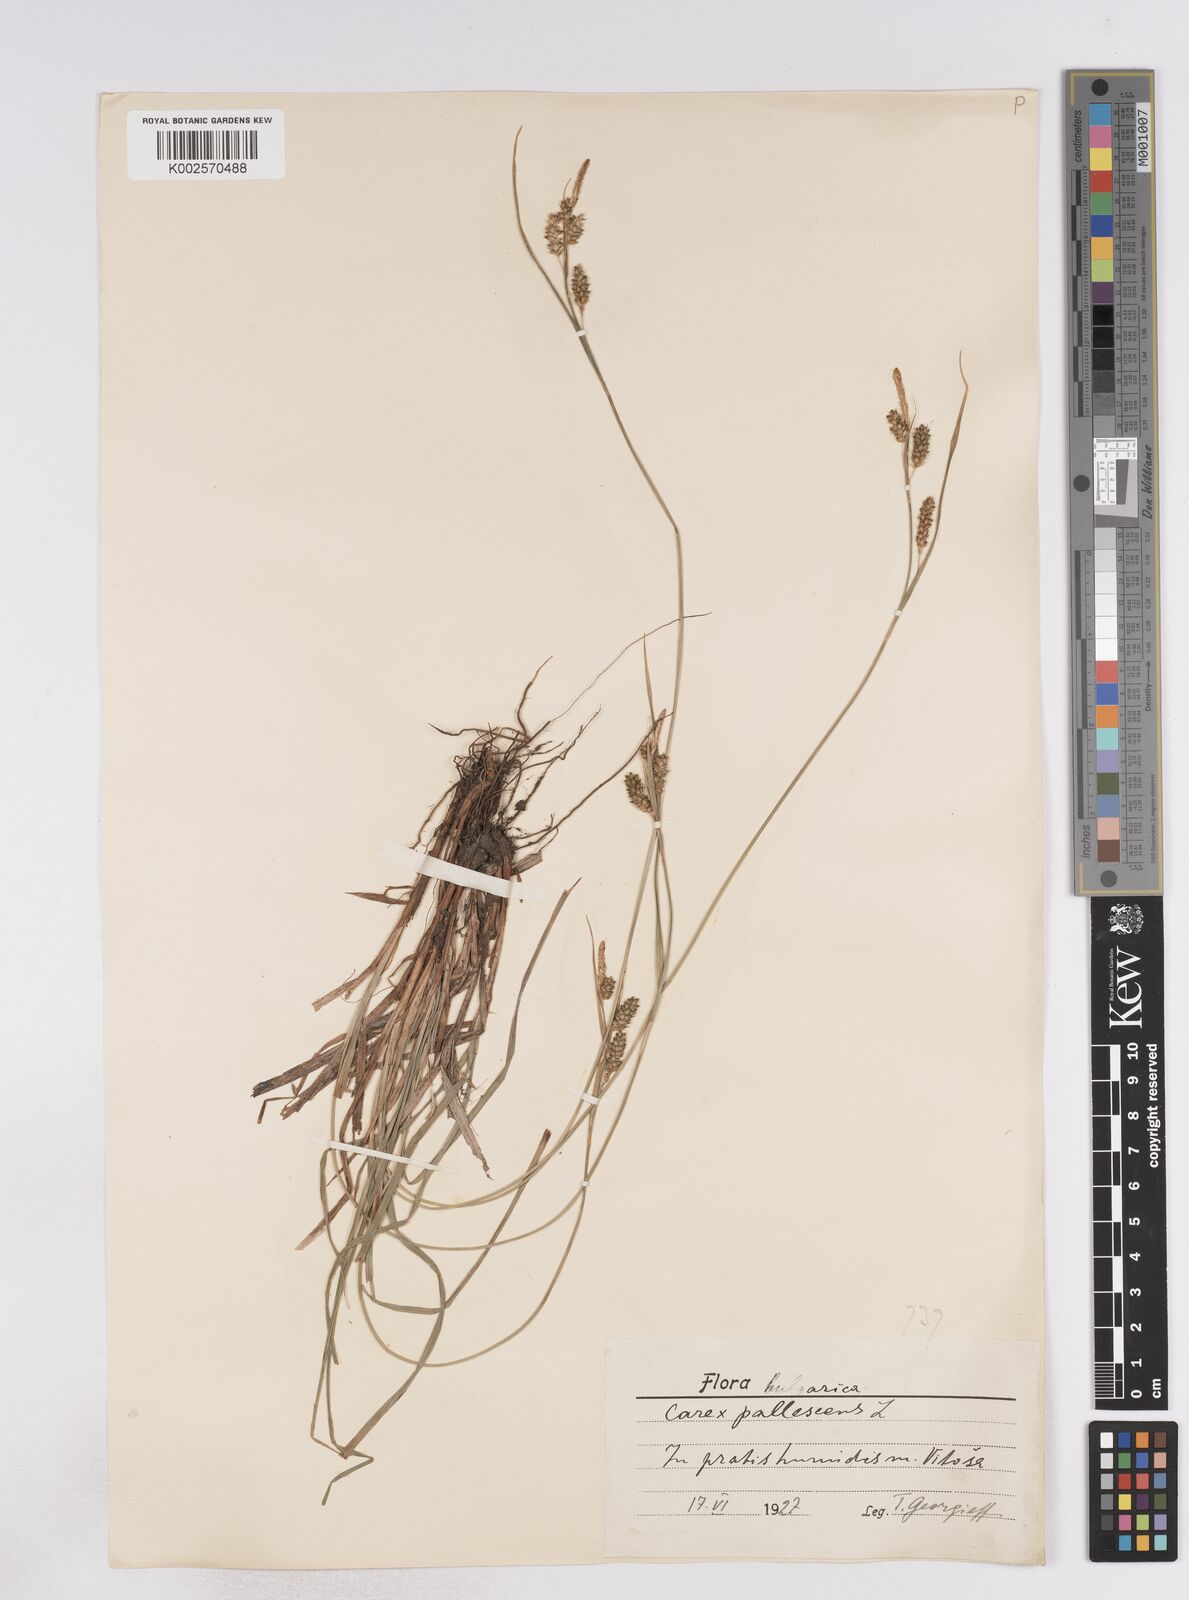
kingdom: Plantae
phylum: Tracheophyta
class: Liliopsida
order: Poales
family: Cyperaceae
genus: Carex
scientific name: Carex pallescens
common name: Pale sedge
